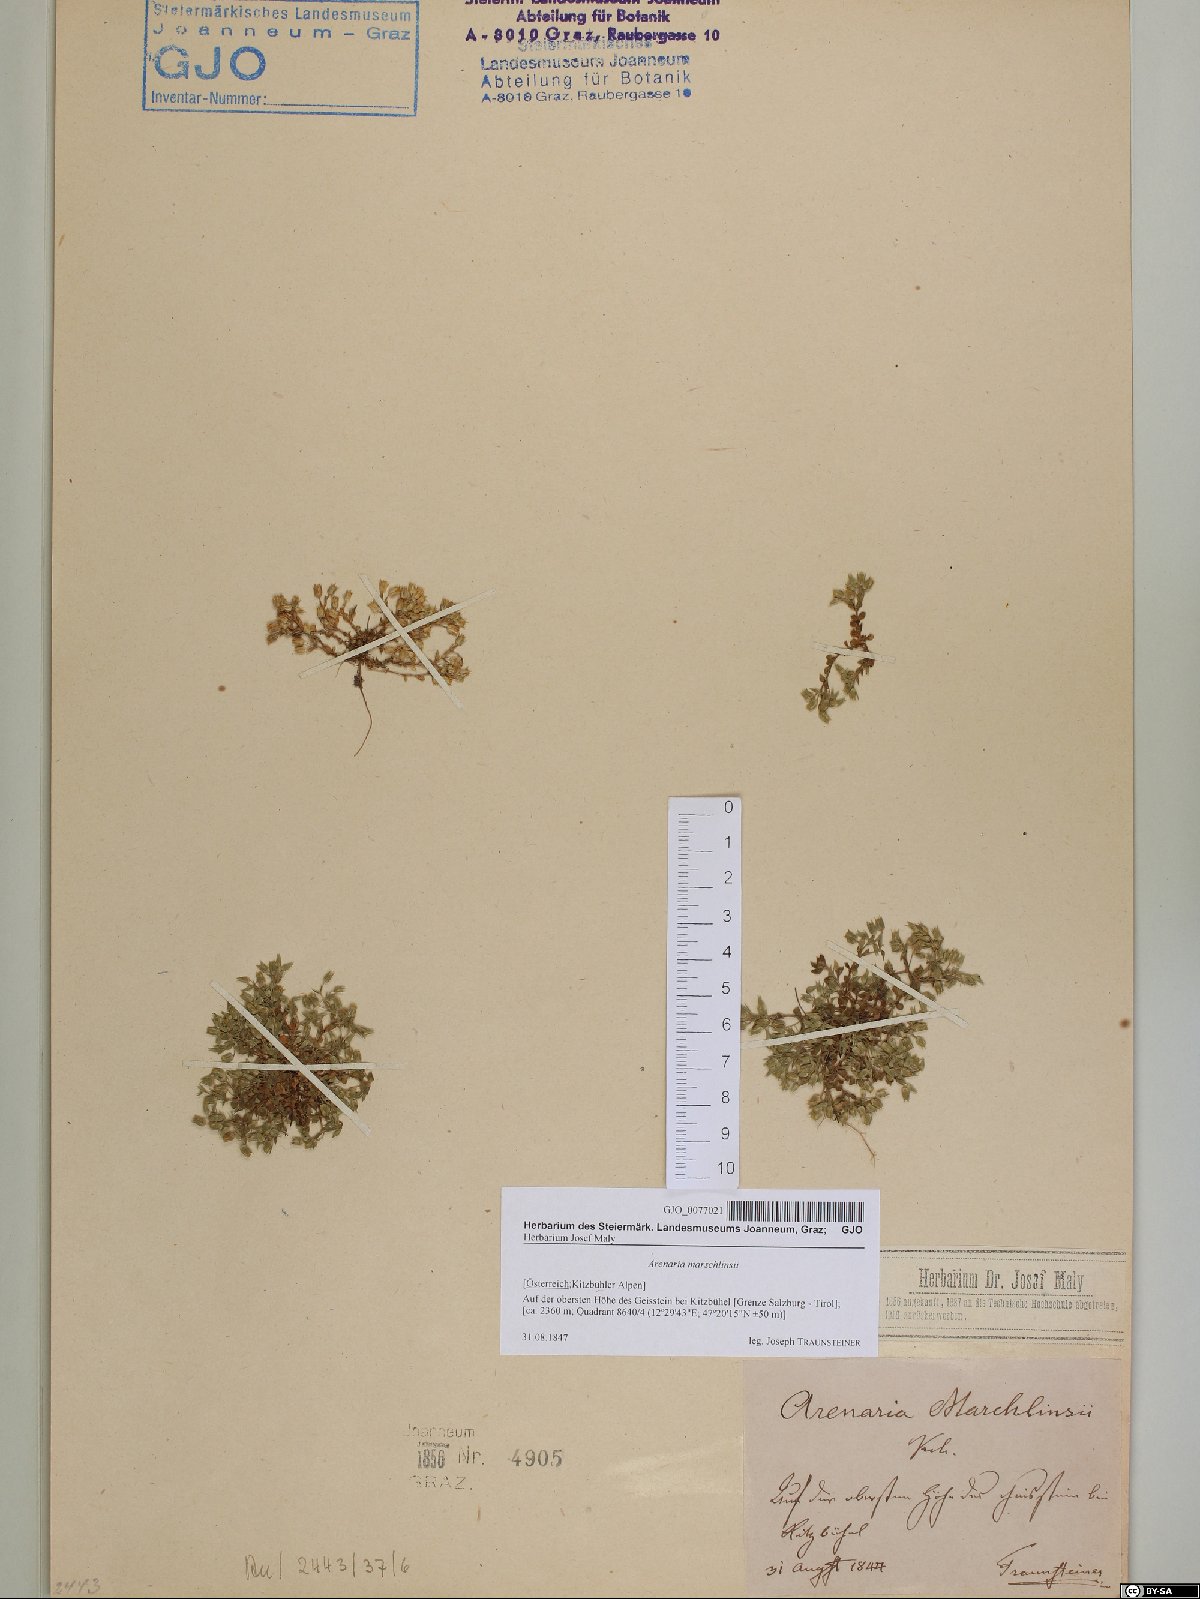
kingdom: Plantae
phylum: Tracheophyta
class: Magnoliopsida
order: Caryophyllales
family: Caryophyllaceae
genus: Arenaria
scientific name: Arenaria marschlinsii
